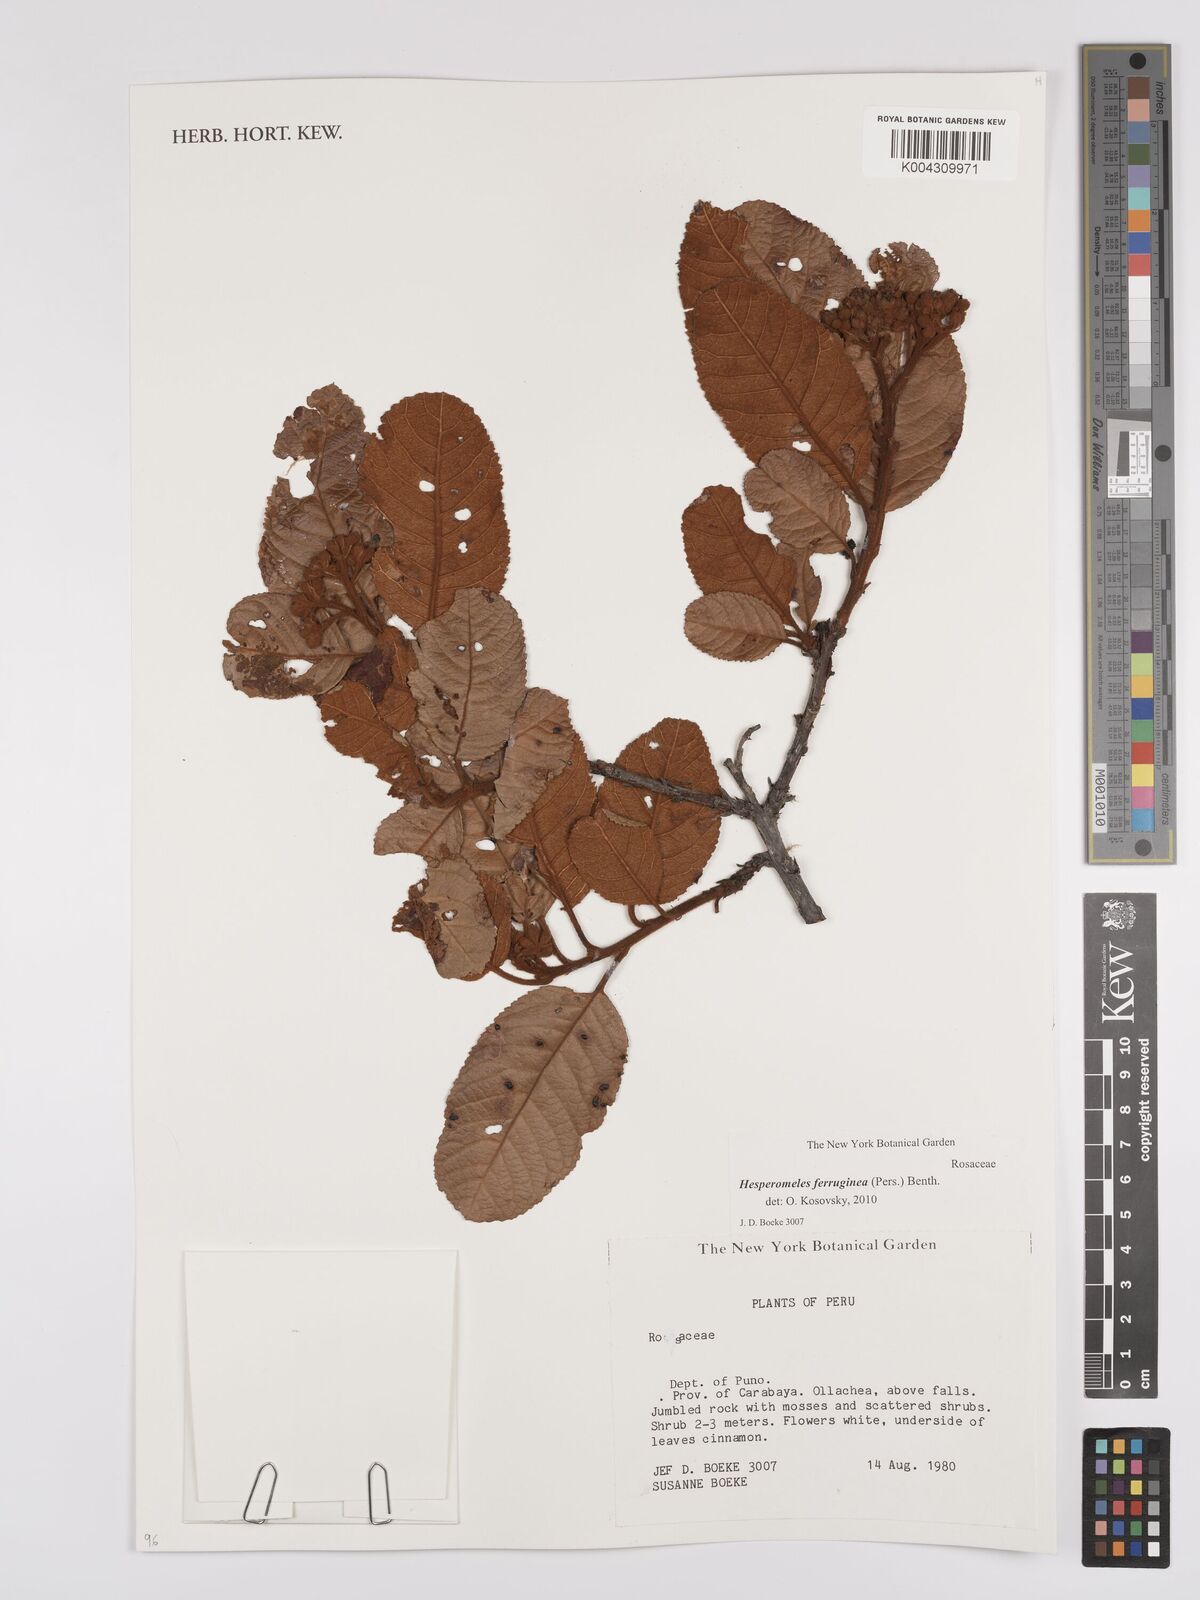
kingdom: Plantae
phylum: Tracheophyta
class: Magnoliopsida
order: Rosales
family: Rosaceae
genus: Hesperomeles
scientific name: Hesperomeles ferruginea
